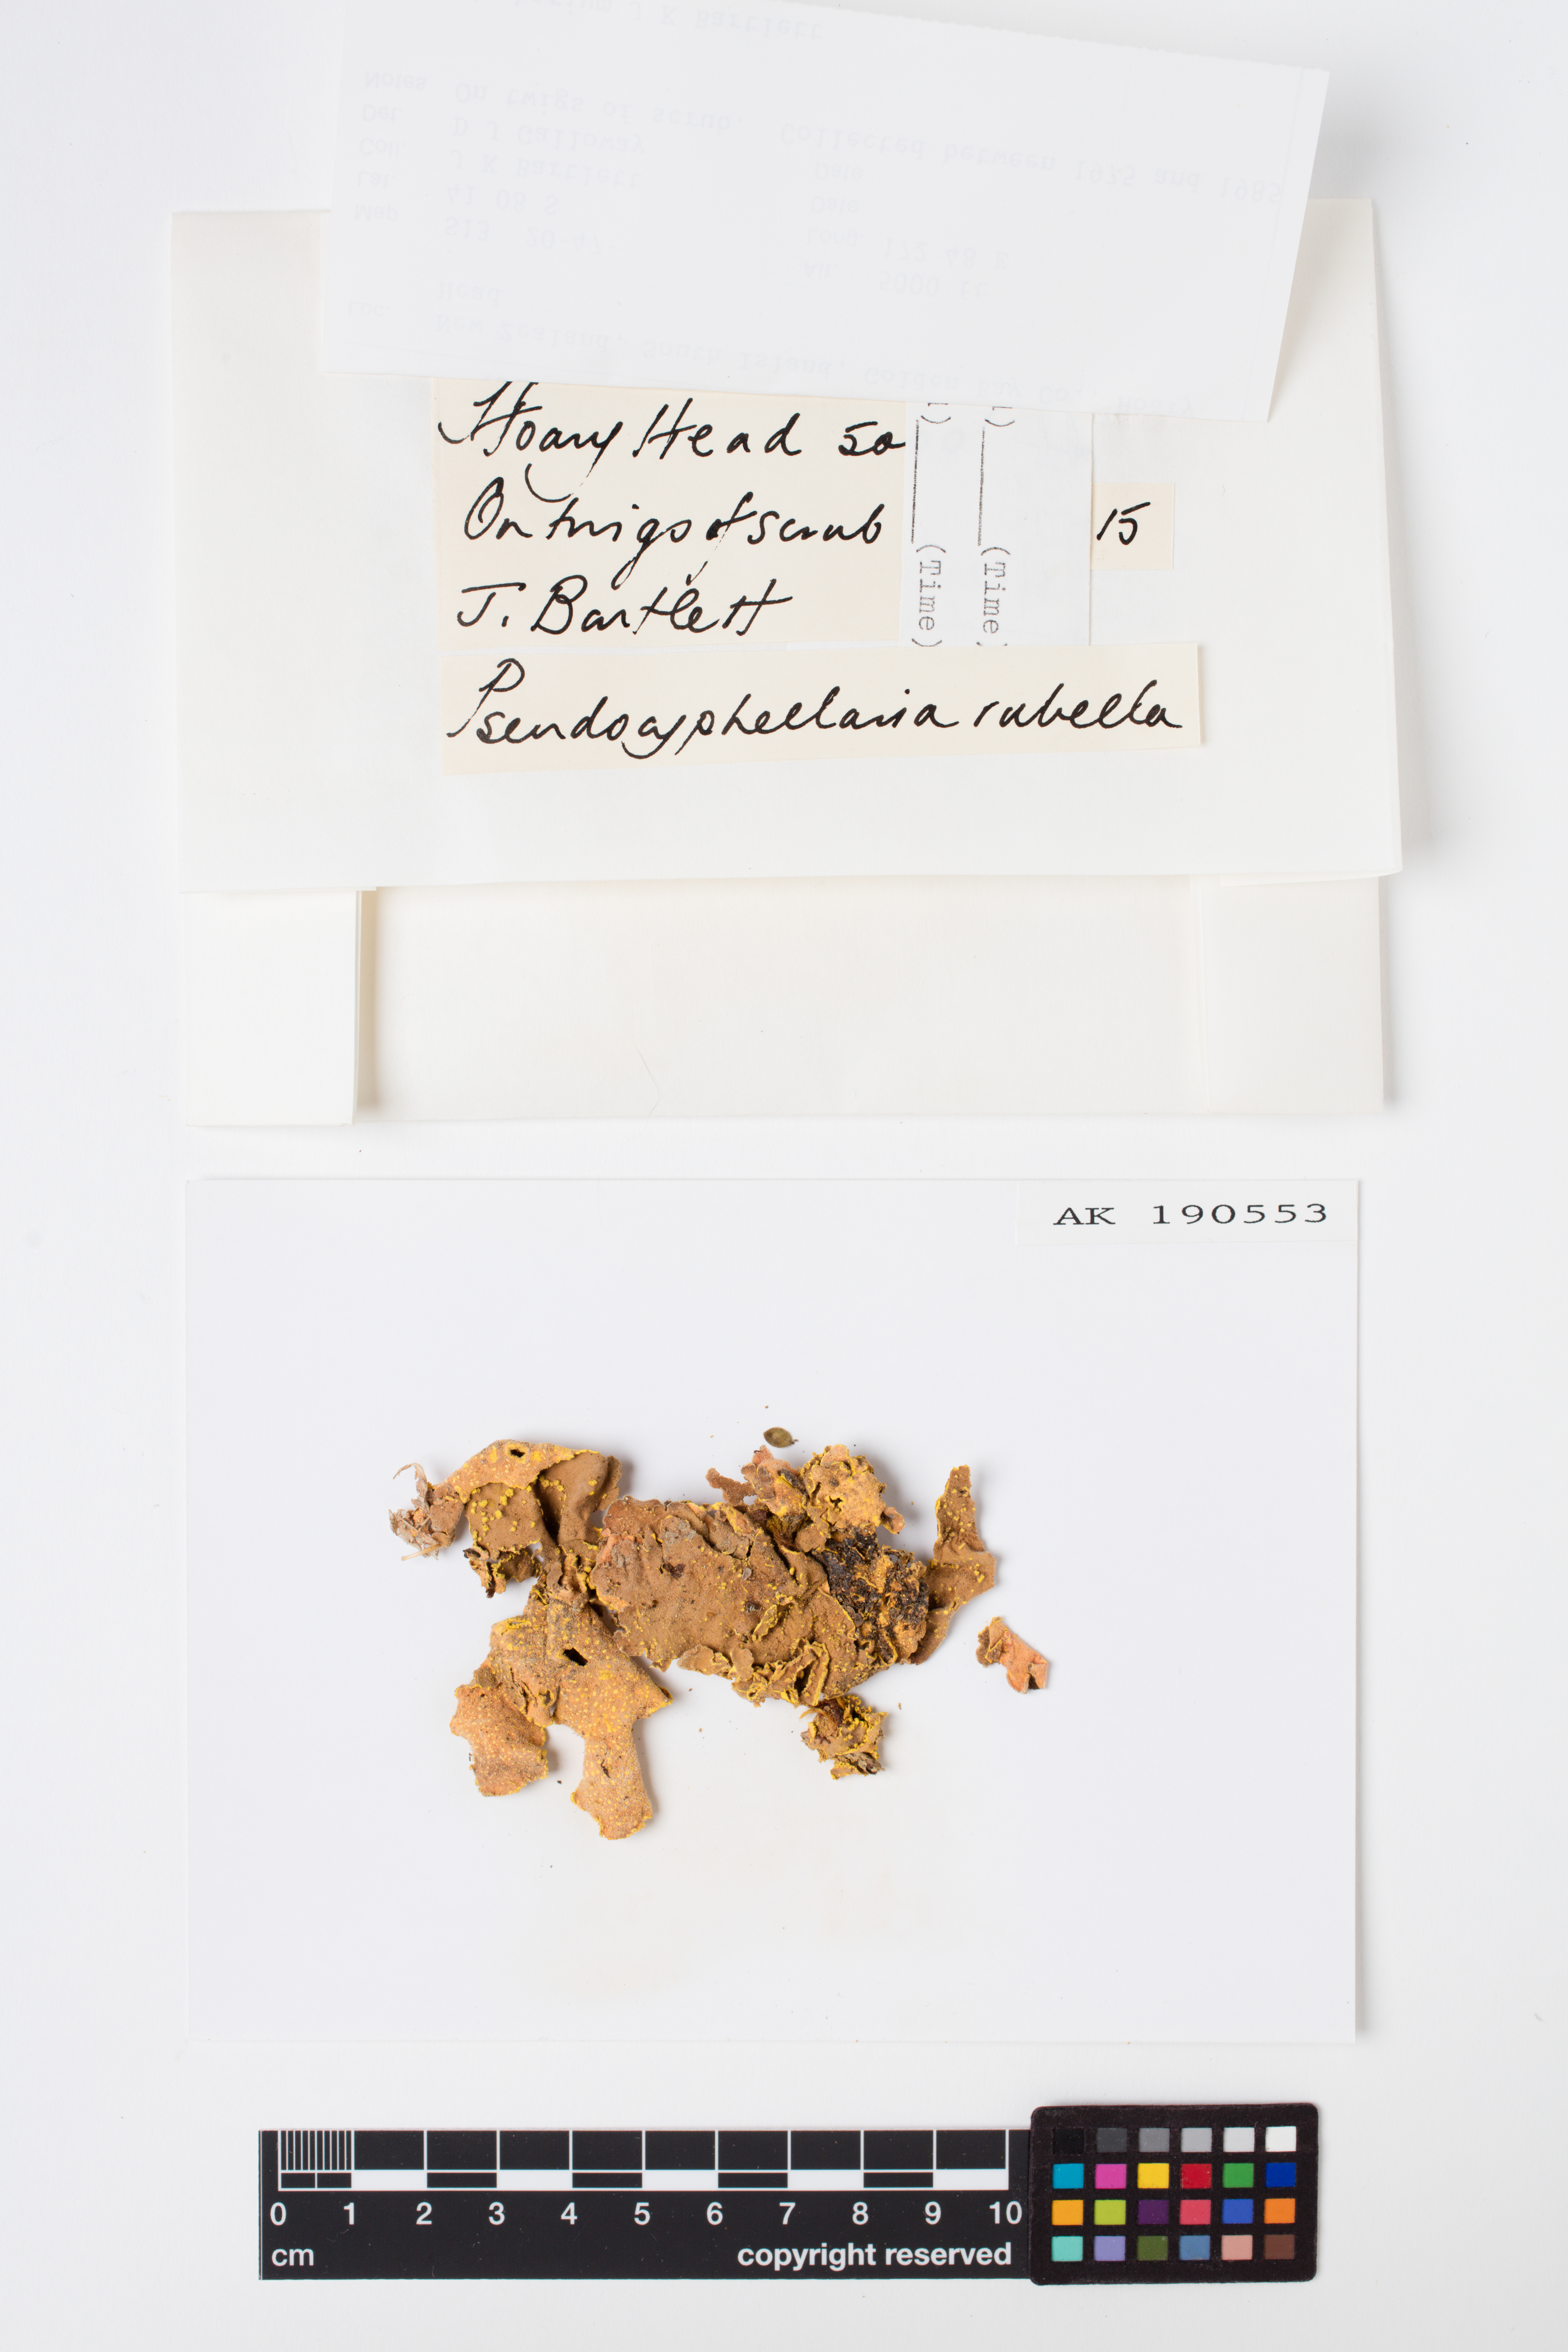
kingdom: Fungi
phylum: Ascomycota
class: Lecanoromycetes
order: Peltigerales
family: Lobariaceae
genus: Pseudocyphellaria
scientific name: Pseudocyphellaria rubella
